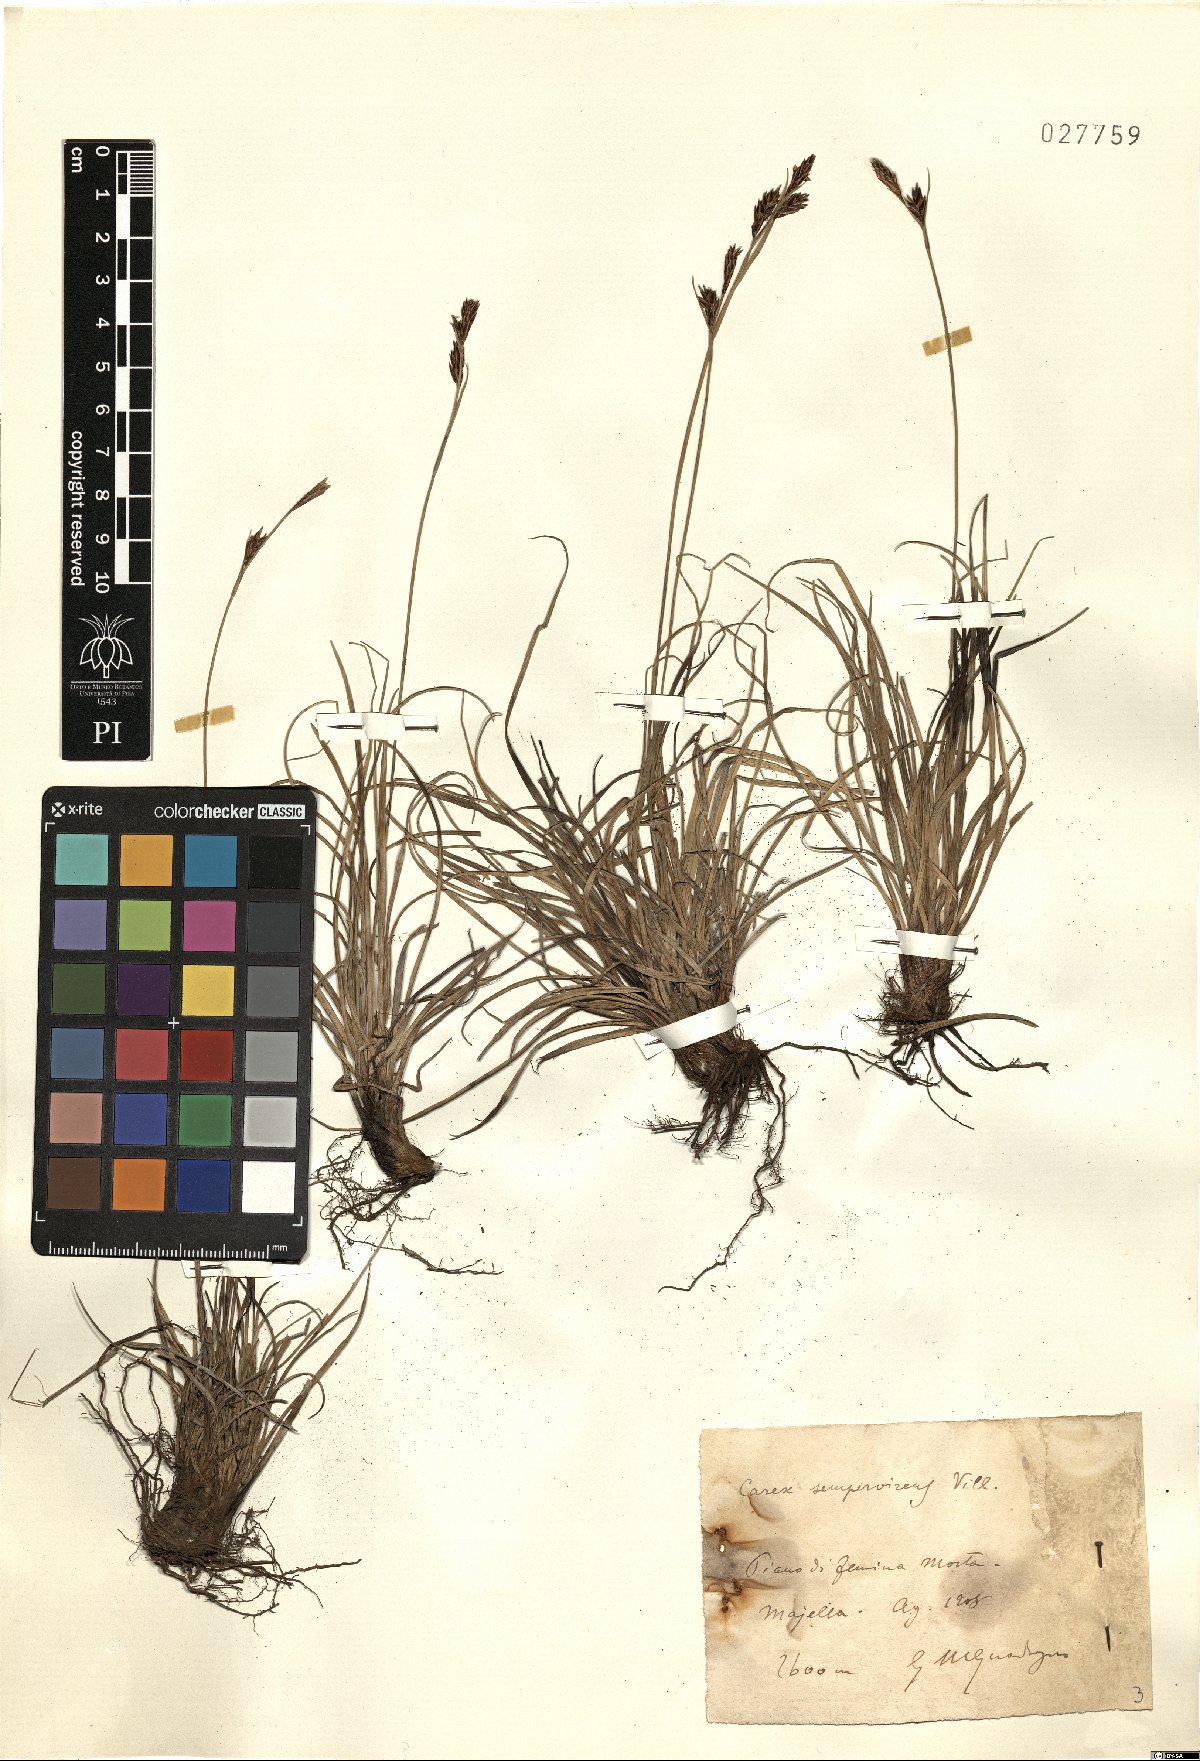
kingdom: Plantae
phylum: Tracheophyta
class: Liliopsida
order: Poales
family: Cyperaceae
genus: Carex
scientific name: Carex sempervirens
